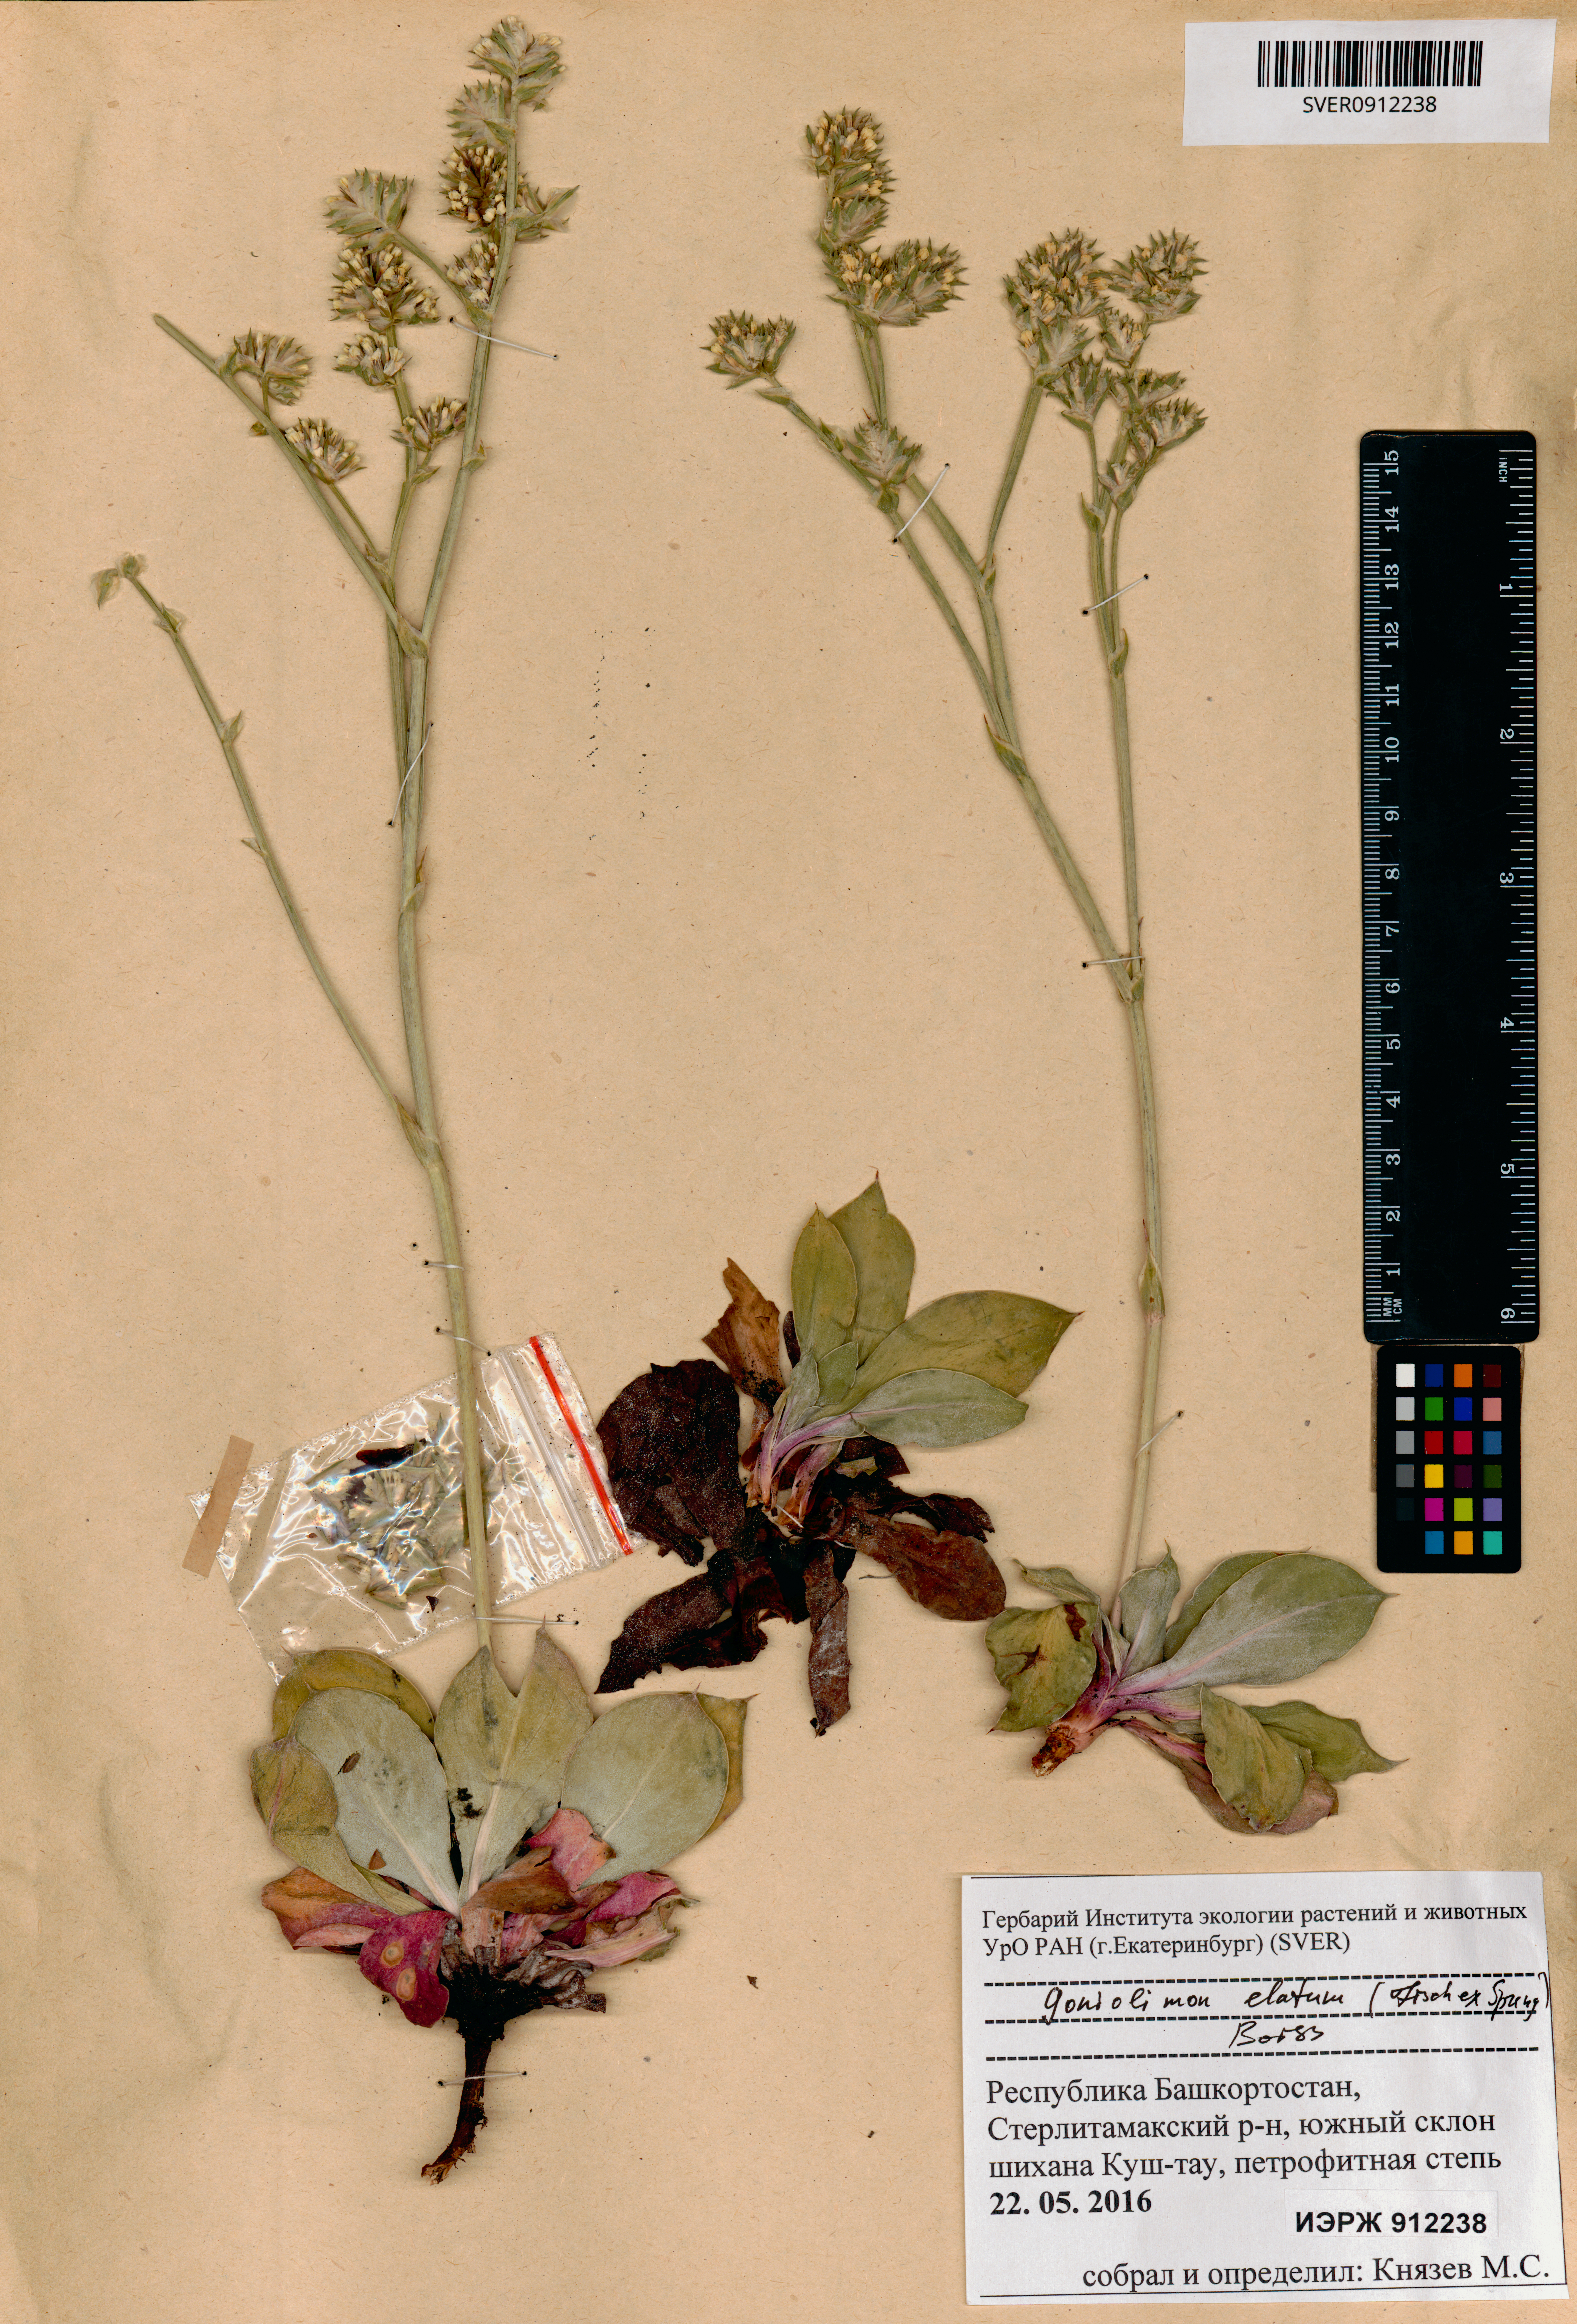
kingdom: Plantae
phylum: Tracheophyta
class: Magnoliopsida
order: Caryophyllales
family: Plumbaginaceae
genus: Goniolimon
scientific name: Goniolimon elatum
